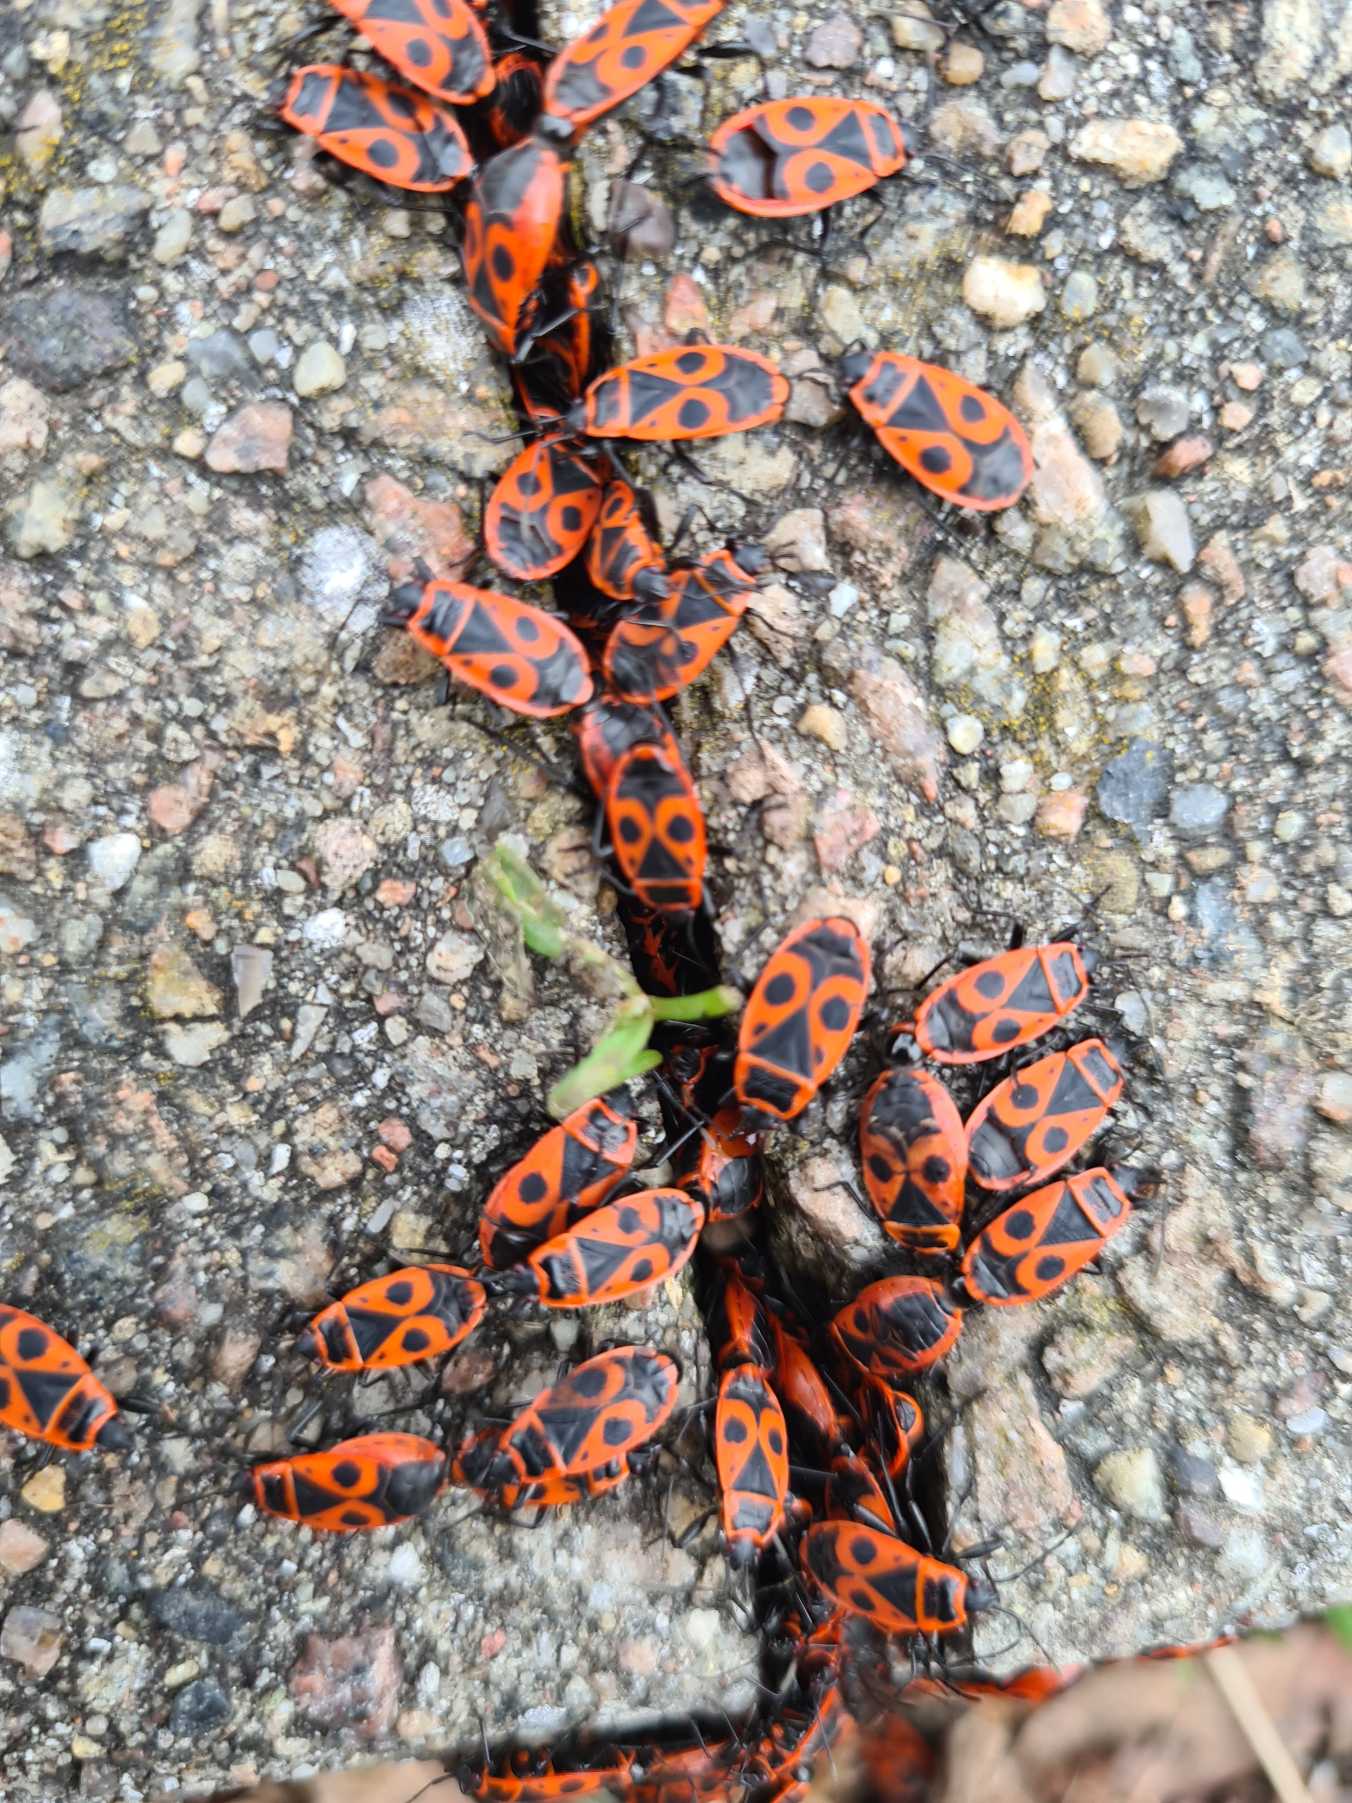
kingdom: Animalia
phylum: Arthropoda
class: Insecta
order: Hemiptera
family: Pyrrhocoridae
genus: Pyrrhocoris
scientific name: Pyrrhocoris apterus
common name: Ildtæge
